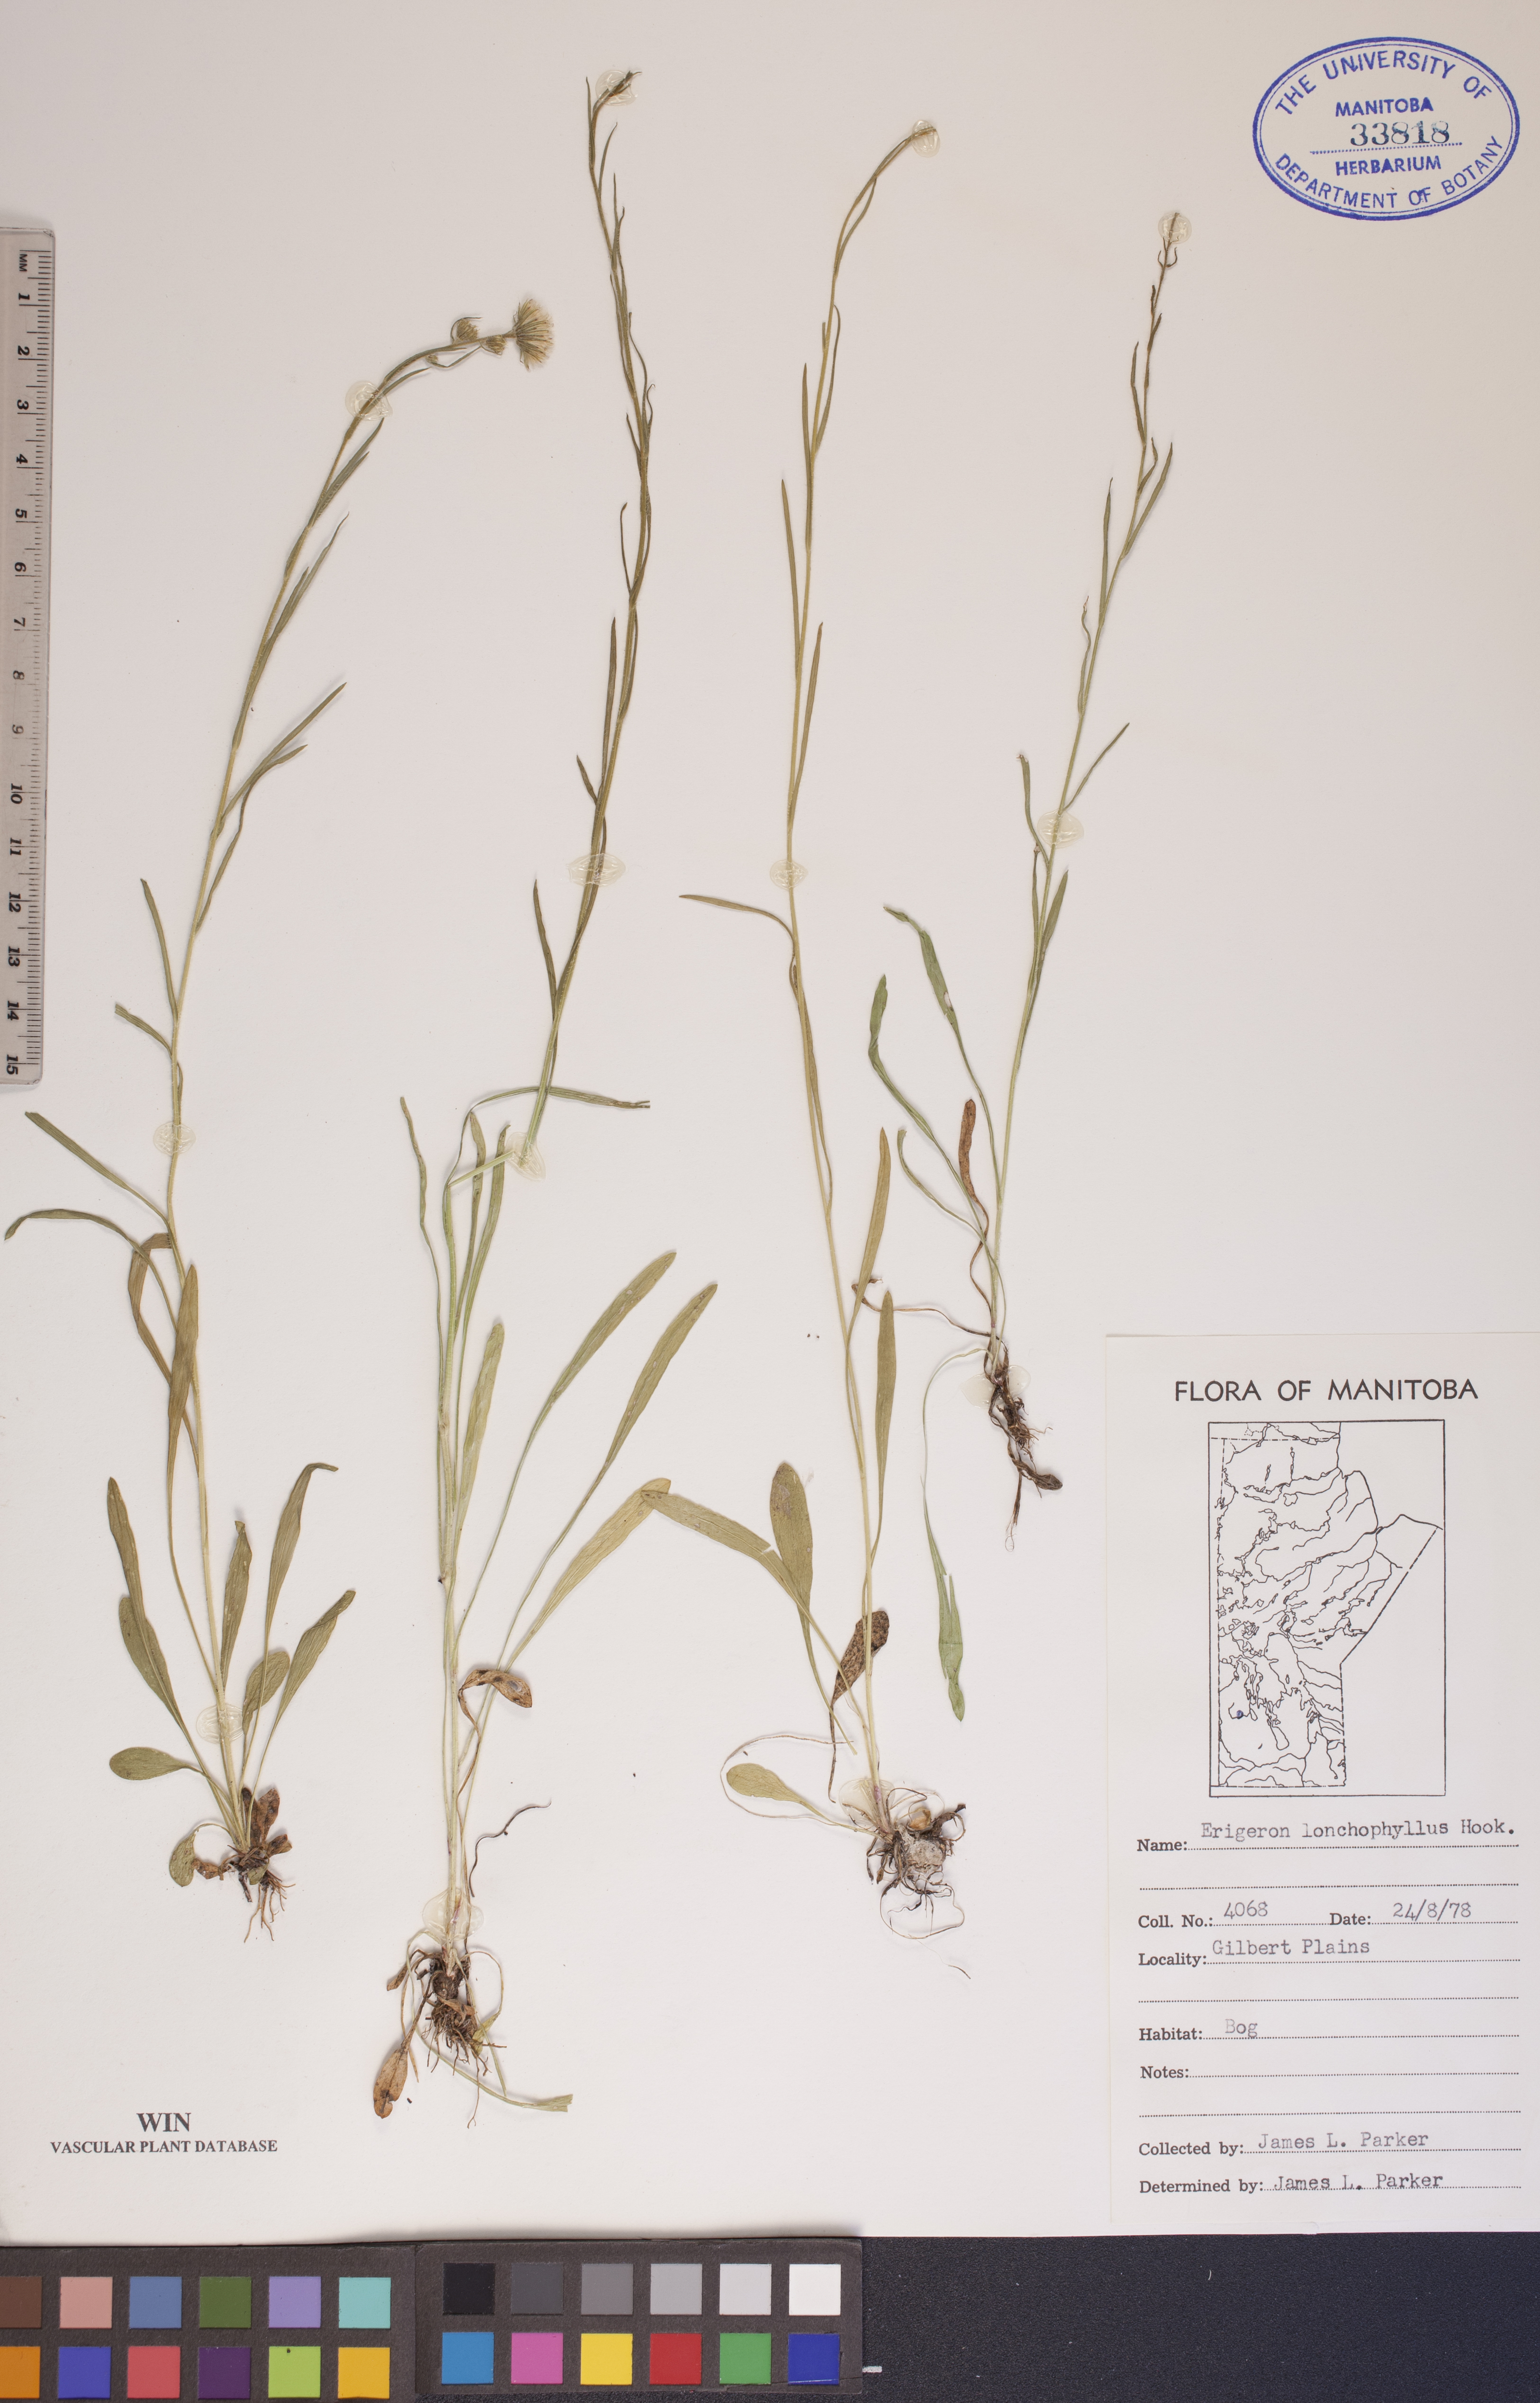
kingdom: Plantae
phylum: Tracheophyta
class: Magnoliopsida
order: Asterales
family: Asteraceae
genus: Erigeron
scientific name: Erigeron lonchophyllus
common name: Short-ray fleabane
